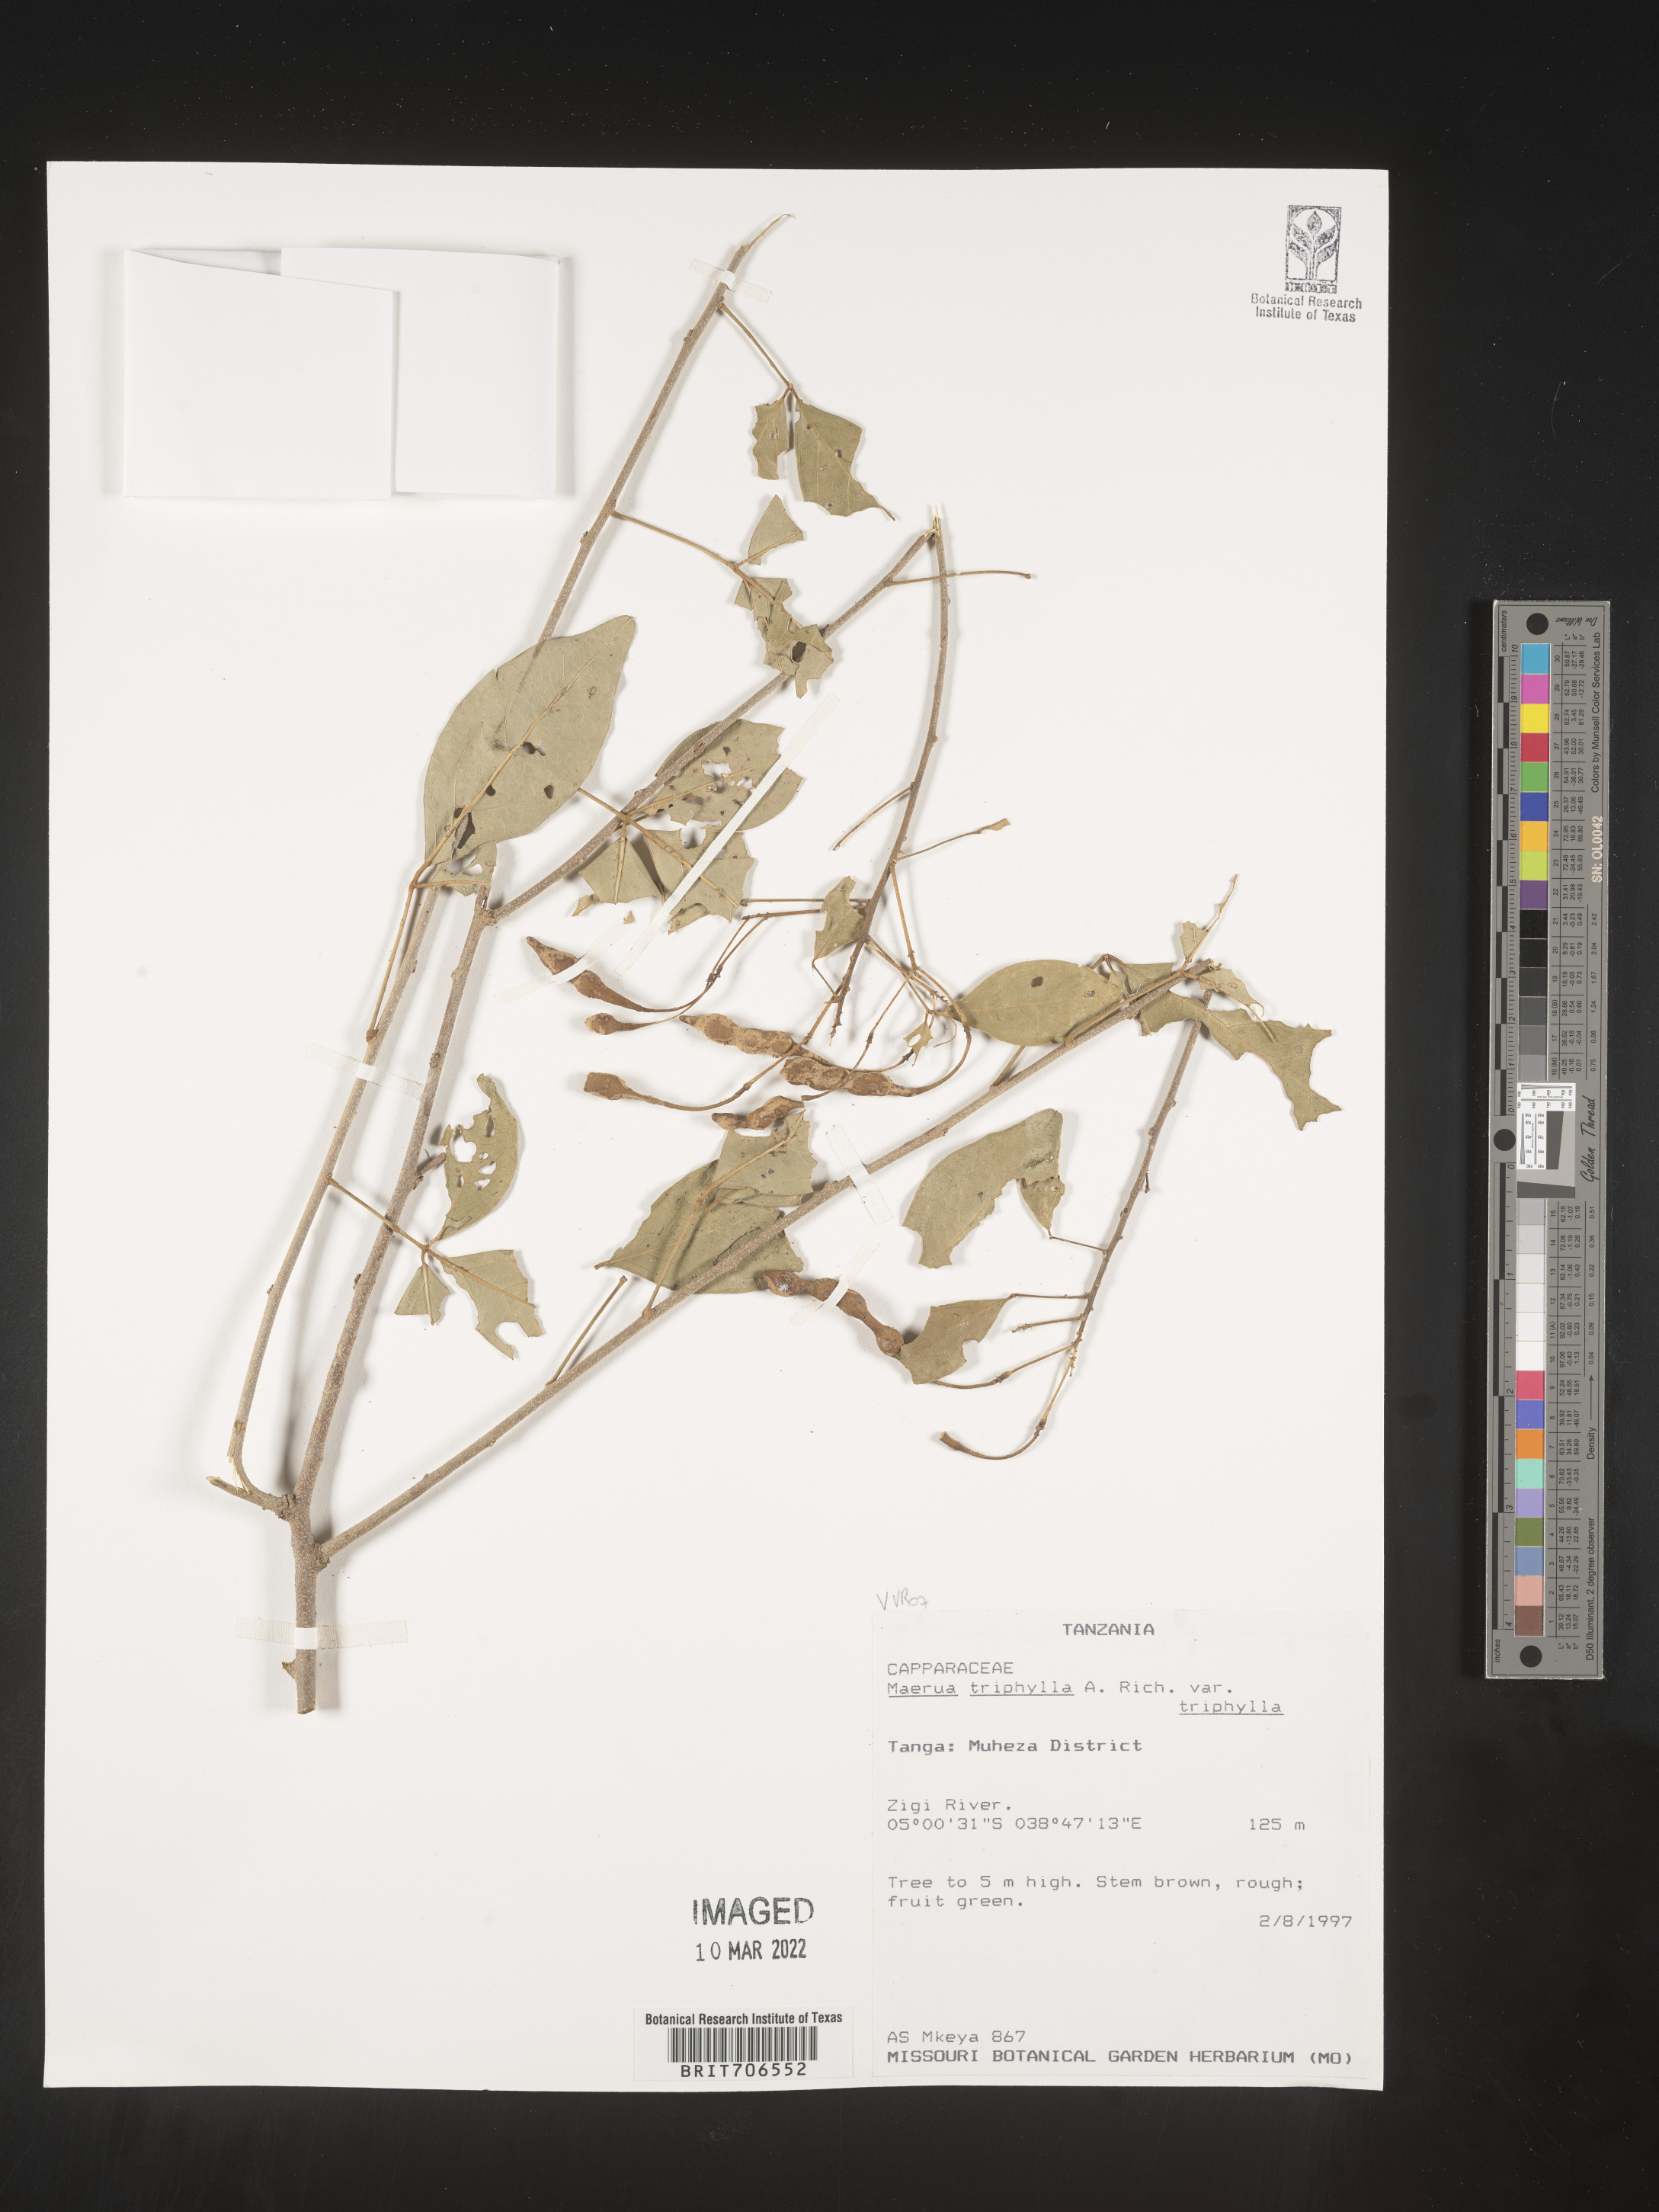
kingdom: Plantae
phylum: Tracheophyta
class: Magnoliopsida
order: Brassicales
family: Capparaceae
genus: Maerua
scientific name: Maerua
